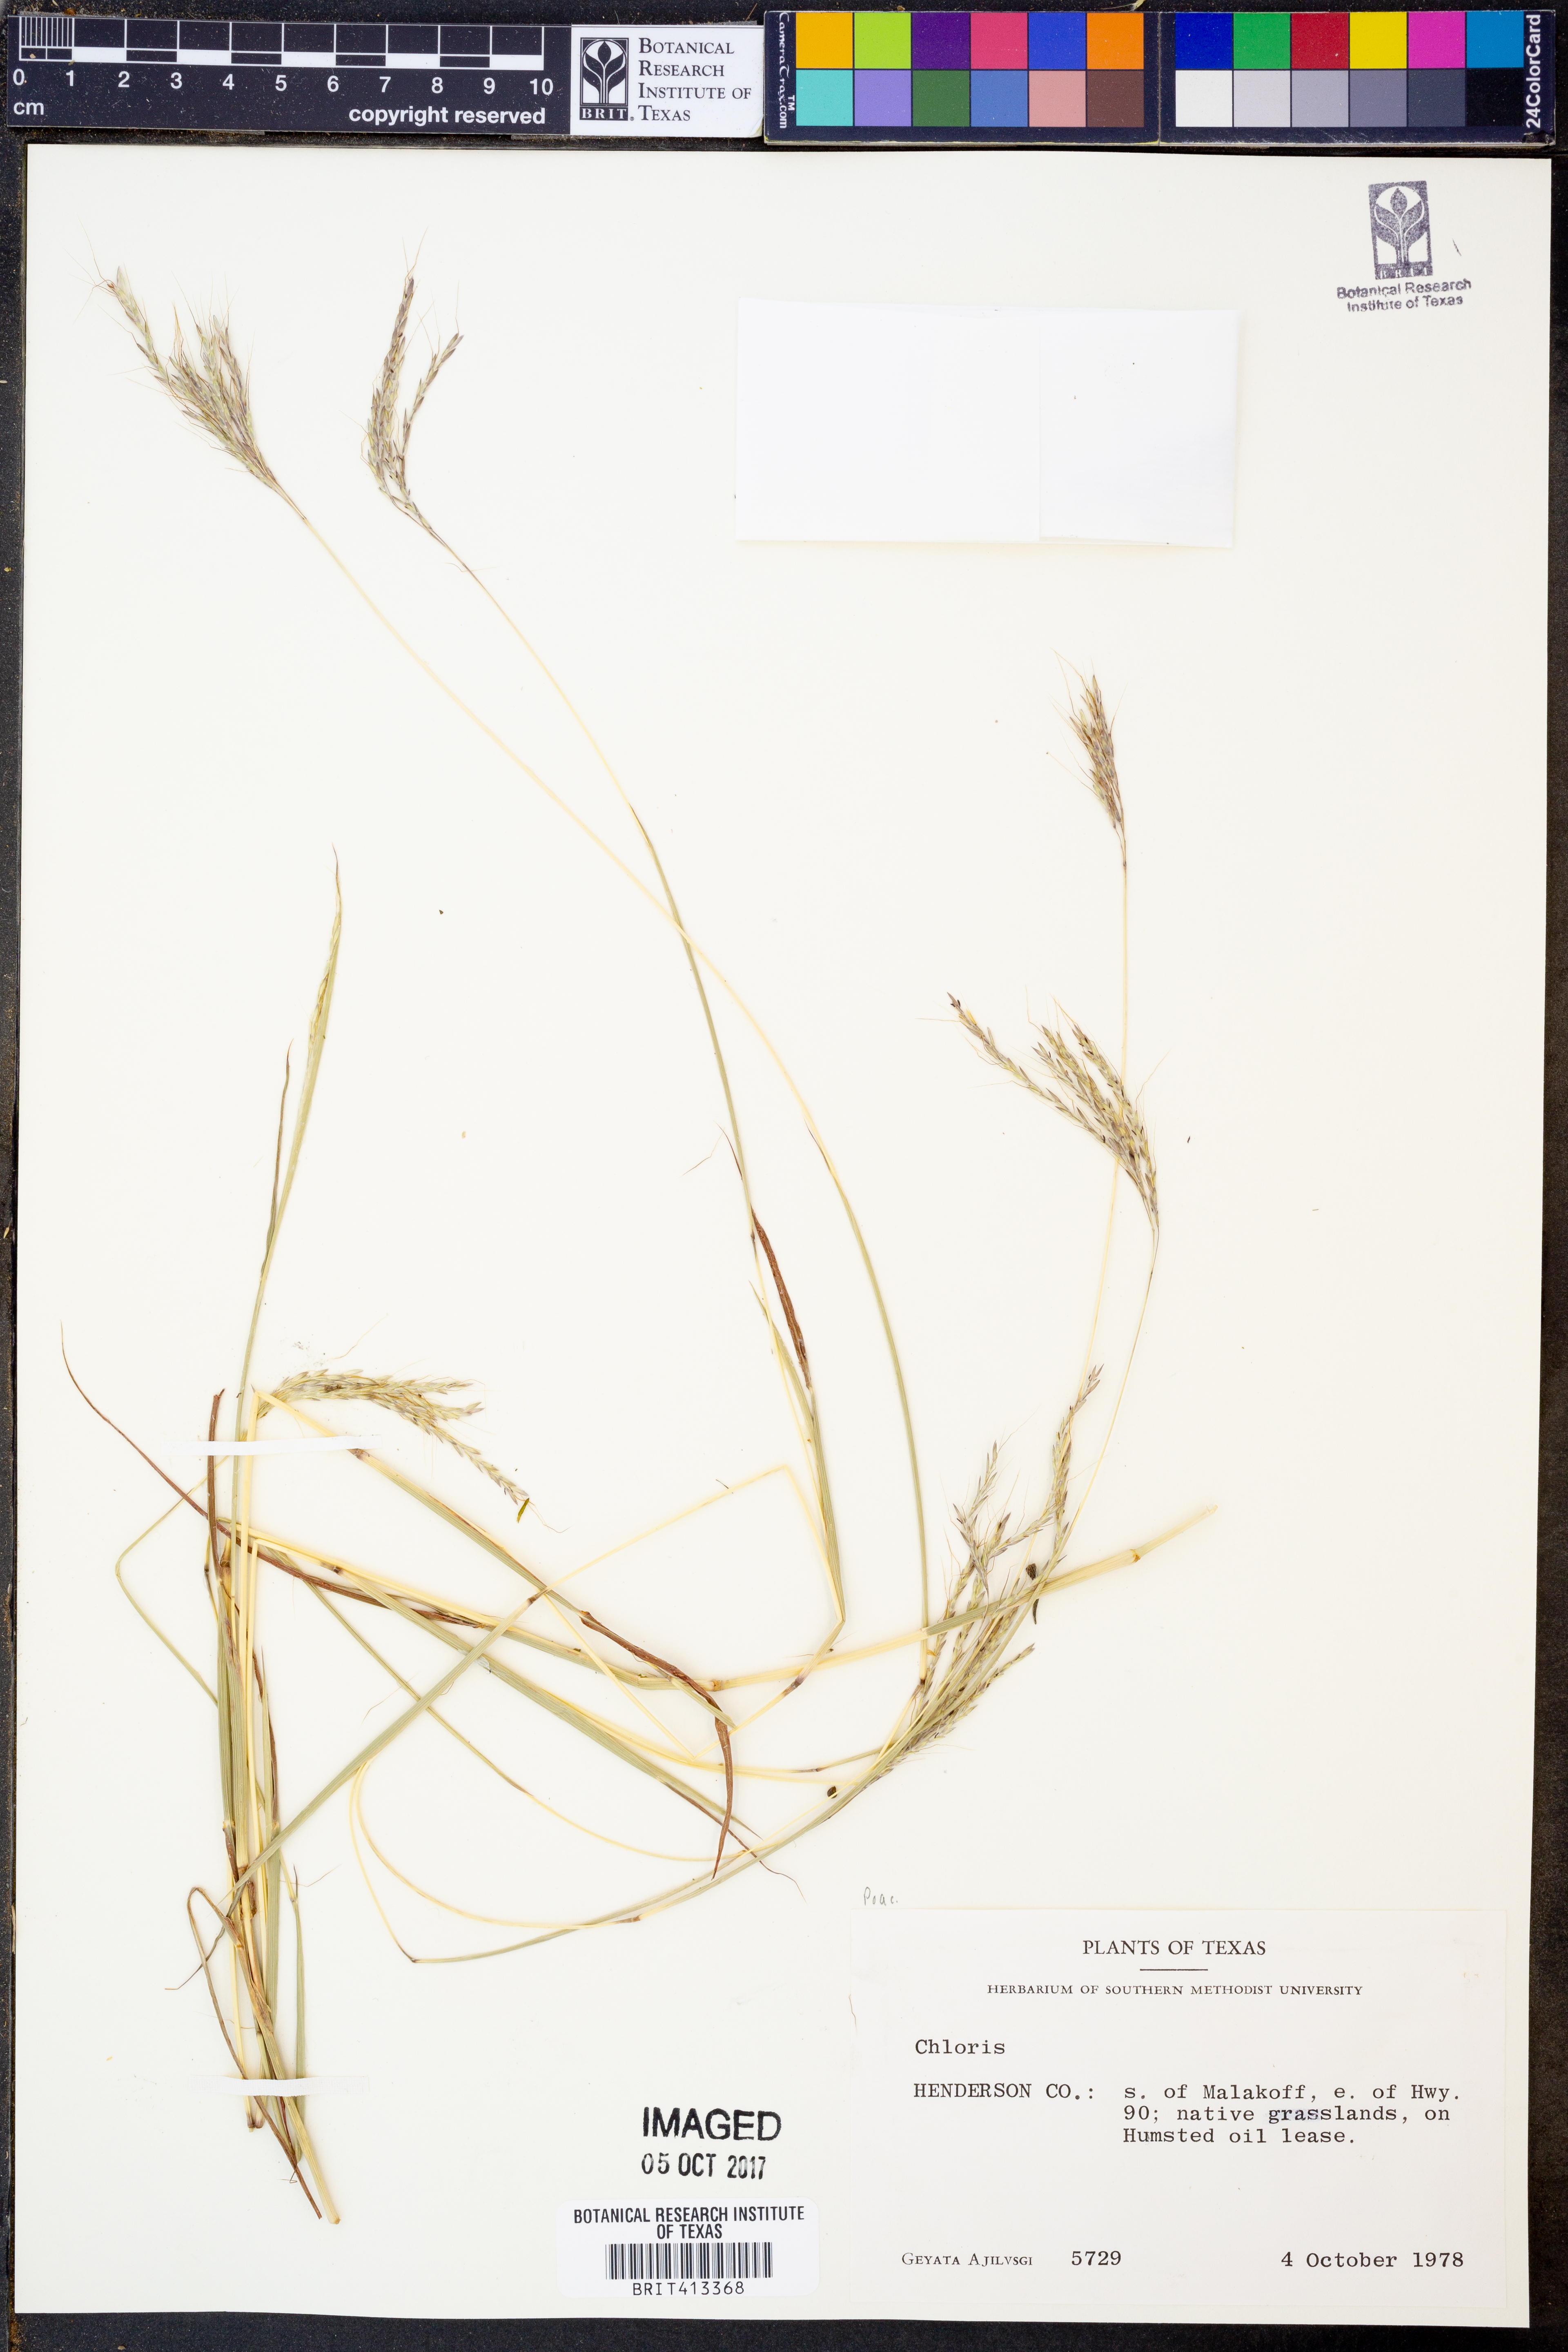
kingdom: Plantae
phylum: Tracheophyta
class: Liliopsida
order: Poales
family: Poaceae
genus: Chloris
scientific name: Chloris
